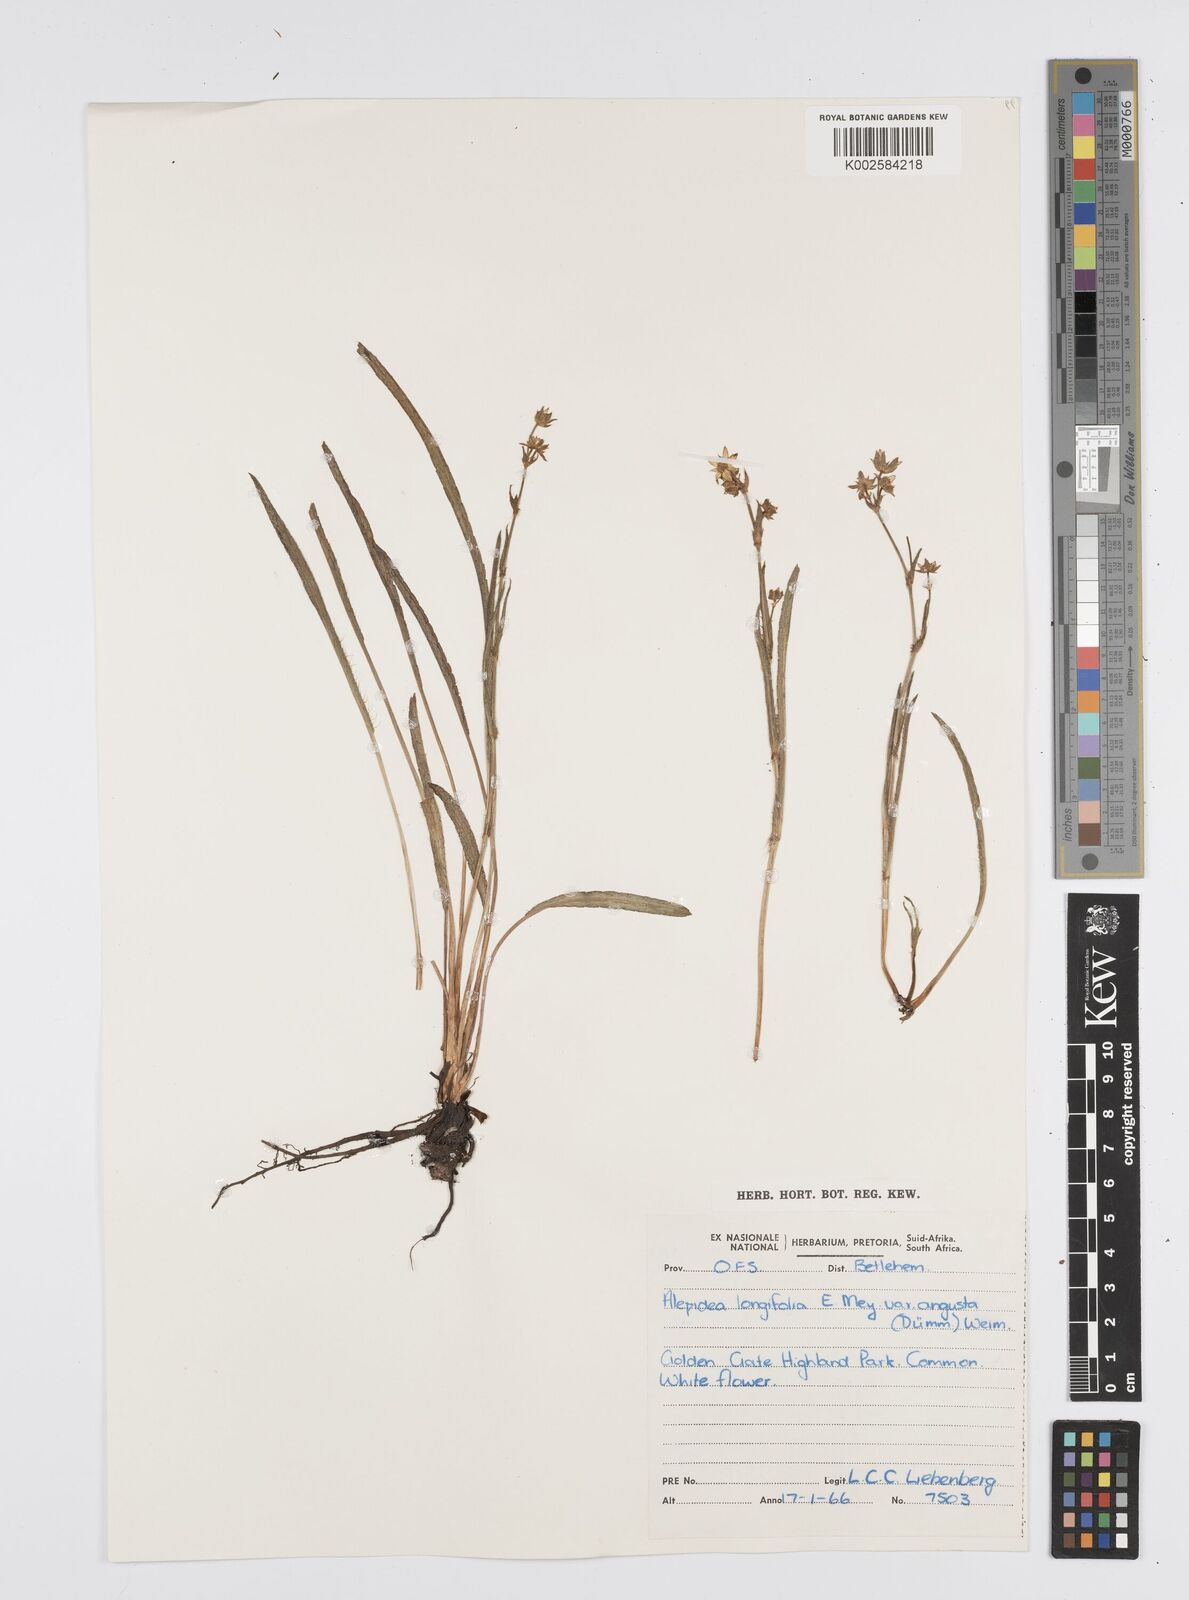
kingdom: Plantae
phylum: Tracheophyta
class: Magnoliopsida
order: Apiales
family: Apiaceae
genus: Alepidea
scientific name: Alepidea serrata
